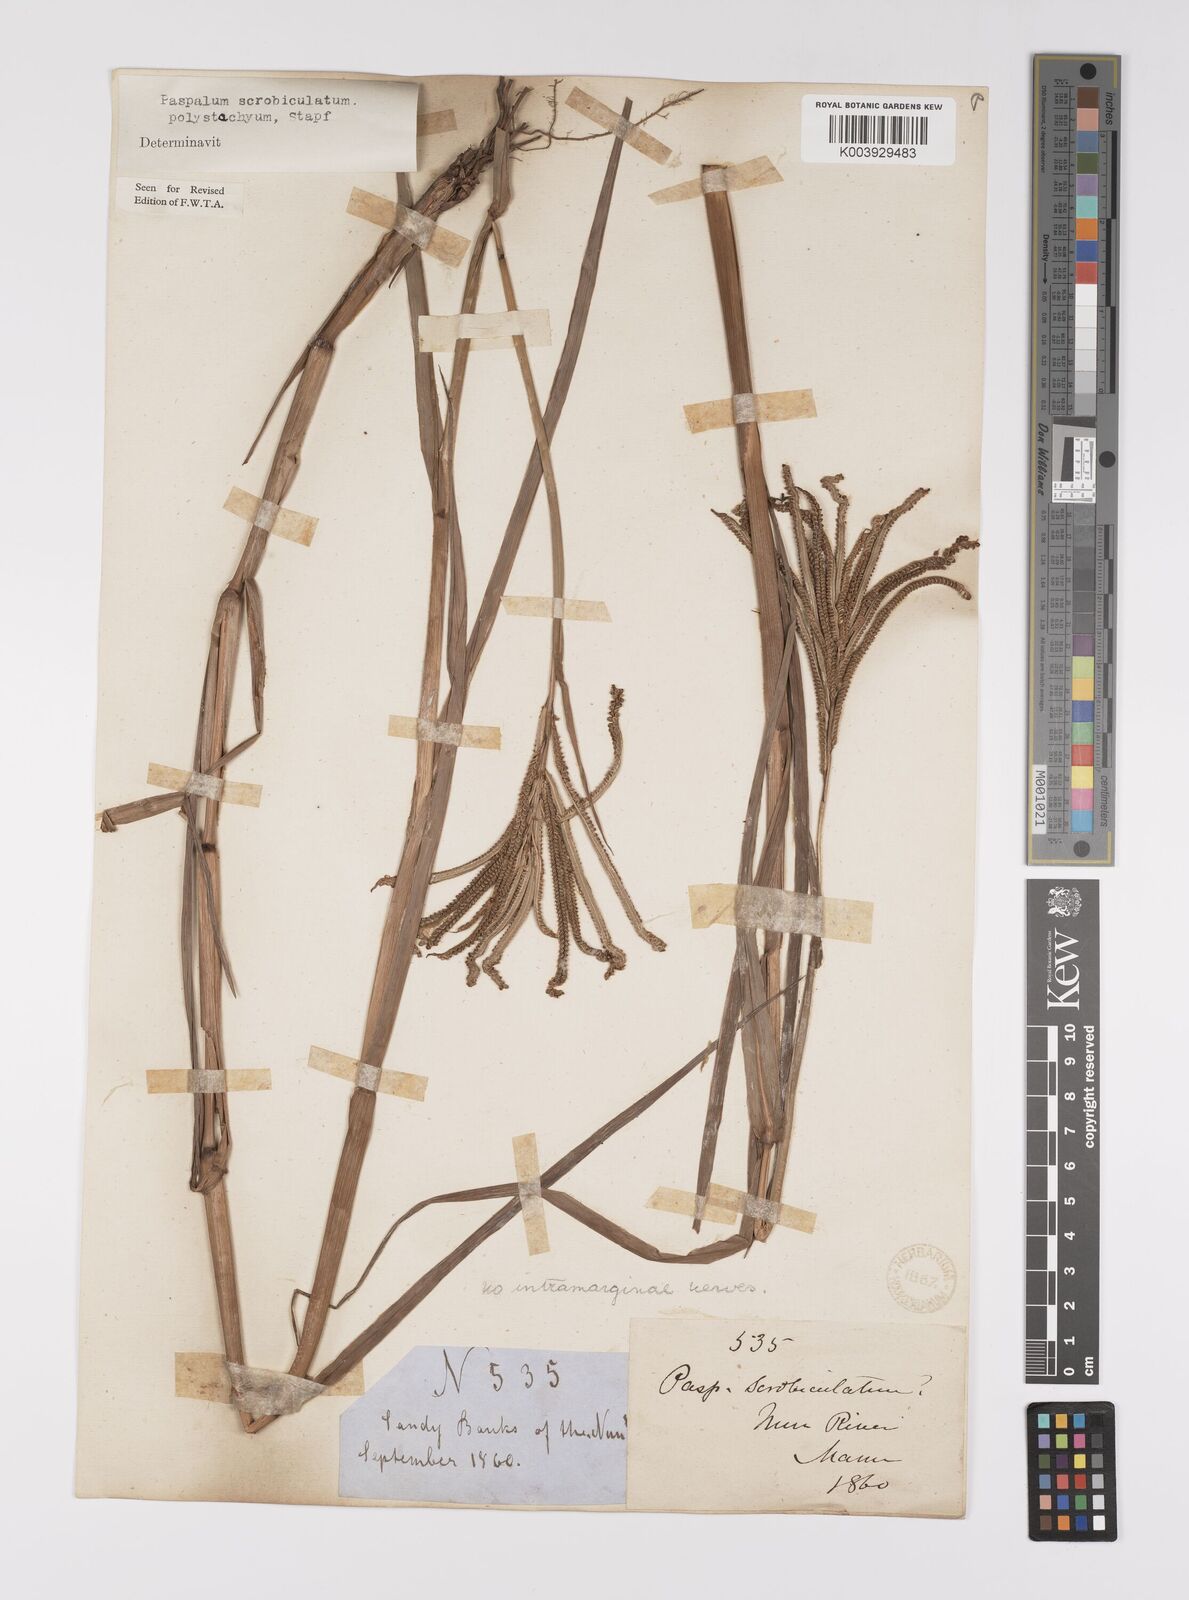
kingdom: Plantae
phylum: Tracheophyta
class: Liliopsida
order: Poales
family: Poaceae
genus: Paspalum
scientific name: Paspalum scrobiculatum
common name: Kodo millet
